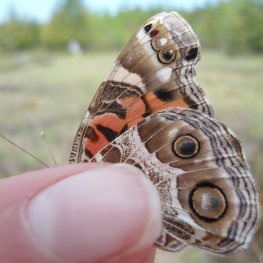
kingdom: Animalia
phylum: Arthropoda
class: Insecta
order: Lepidoptera
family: Nymphalidae
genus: Vanessa
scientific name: Vanessa virginiensis
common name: American Lady
